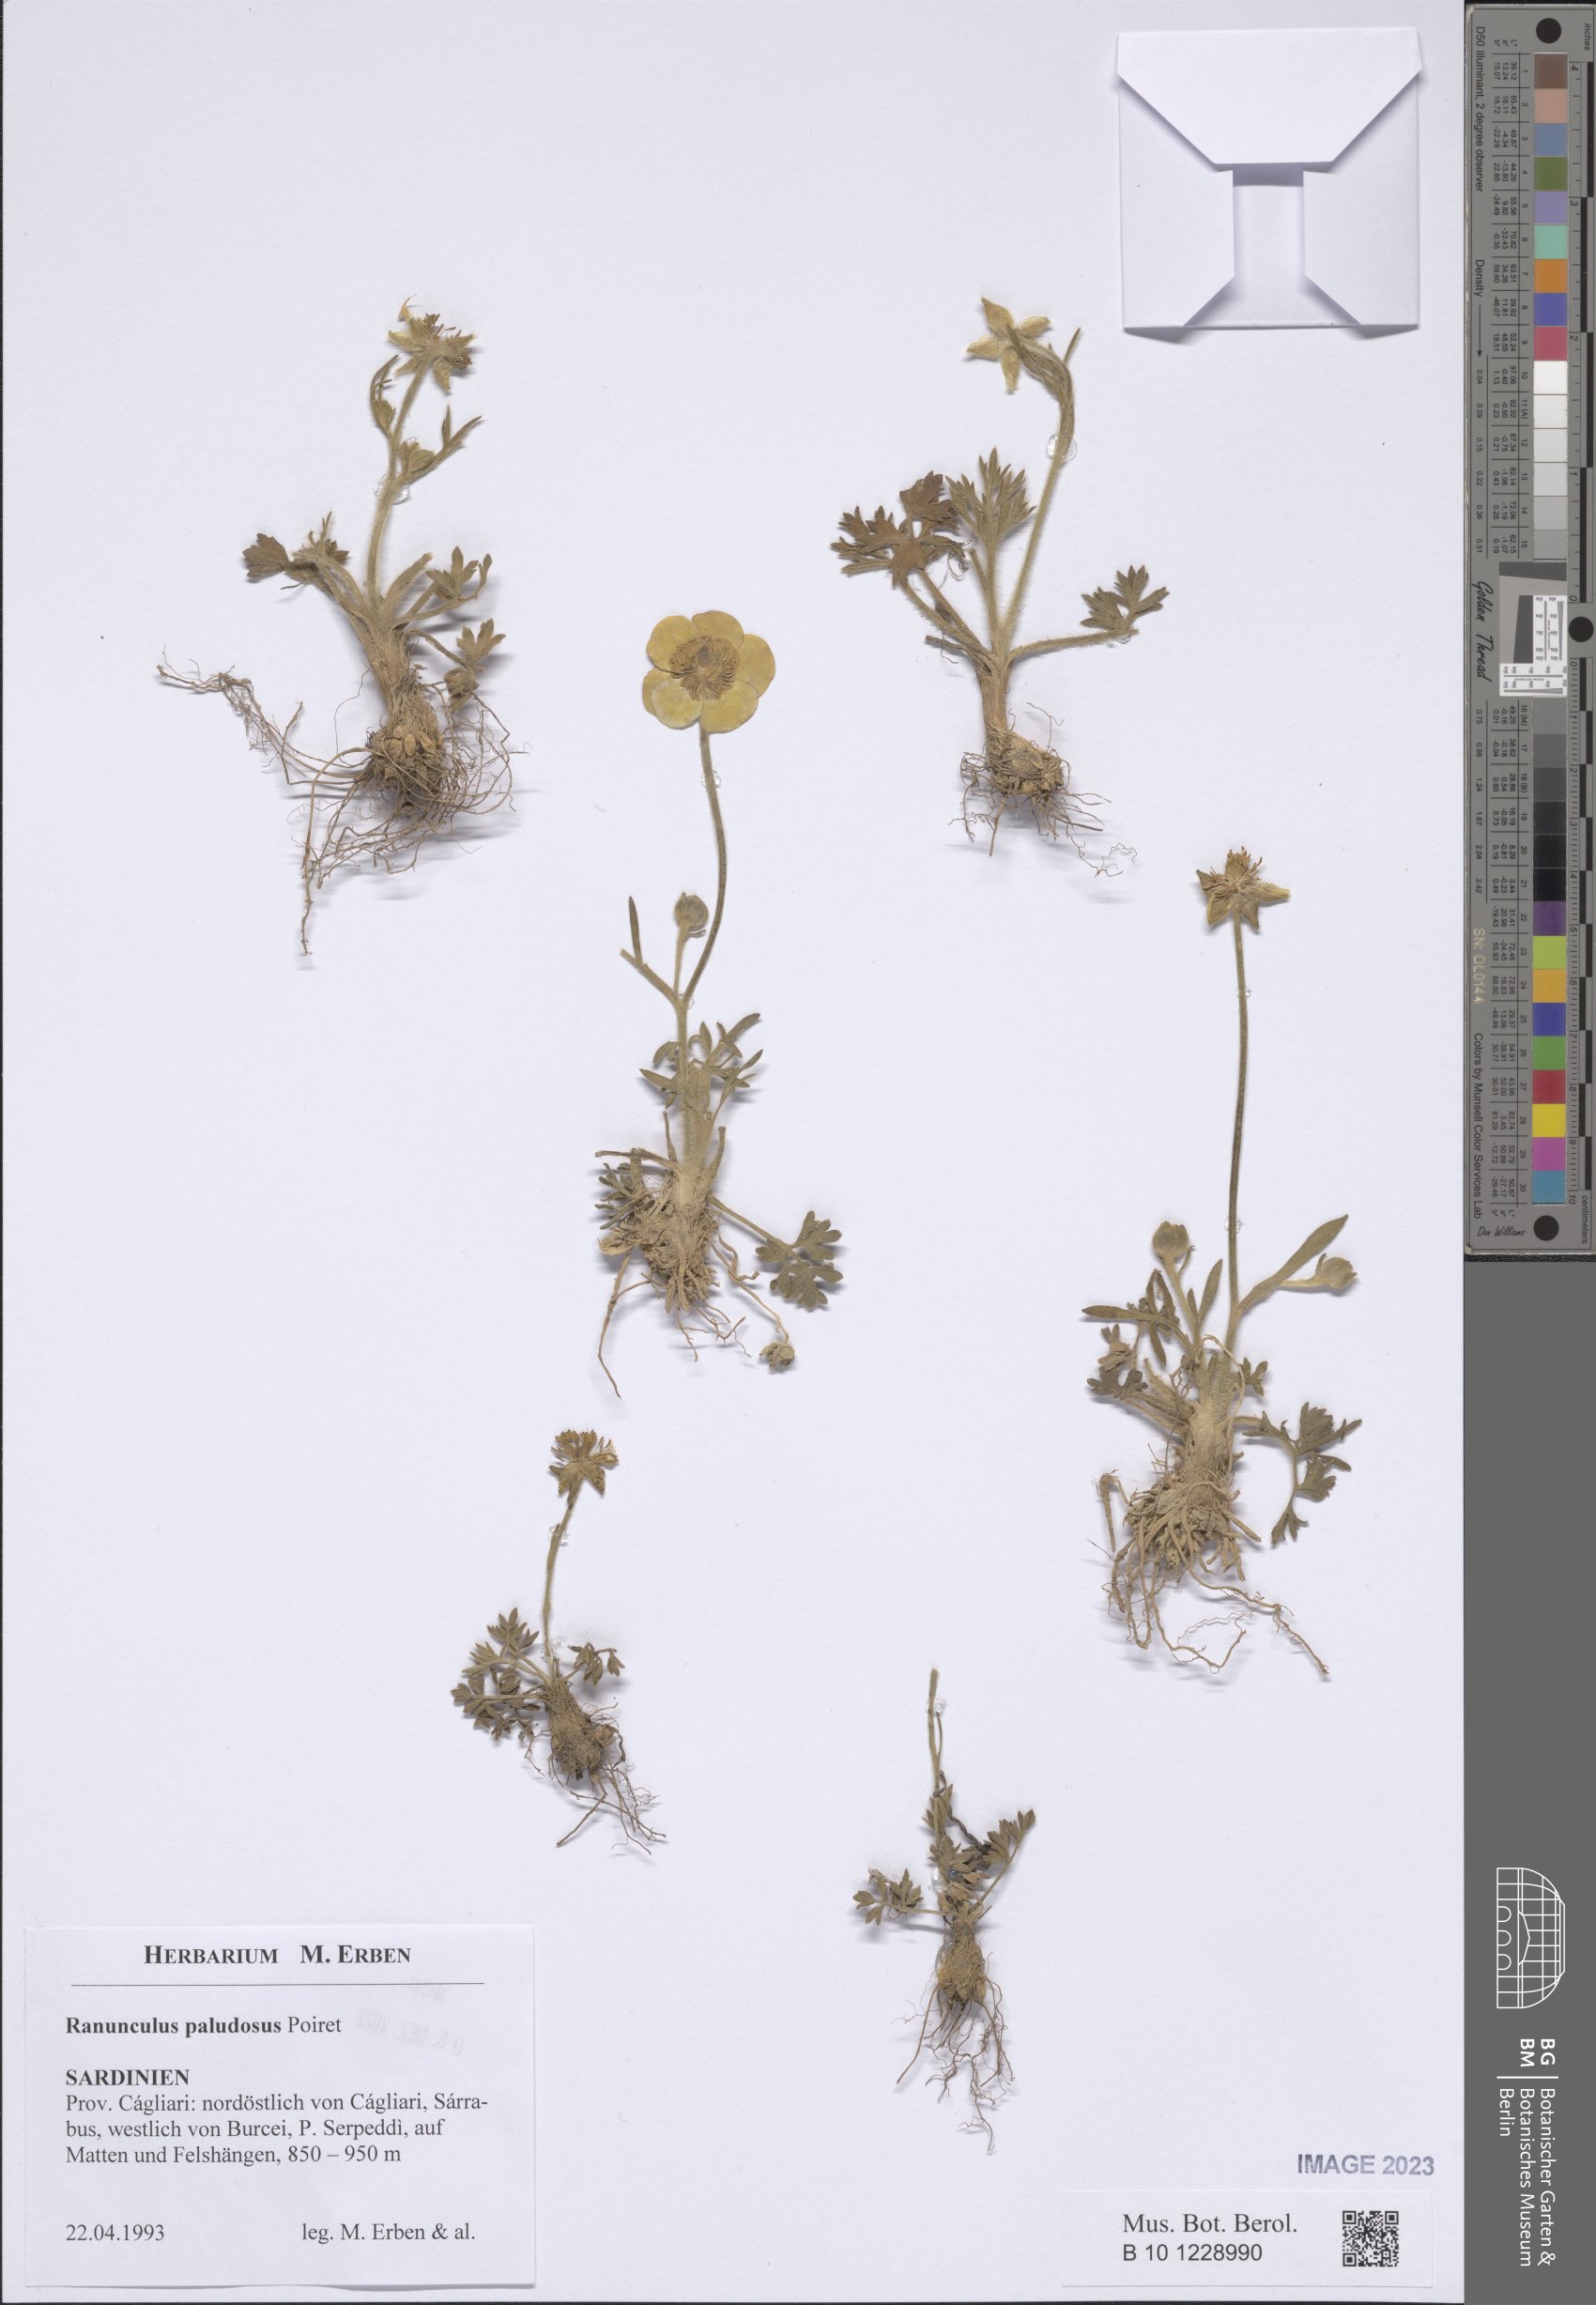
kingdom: Plantae
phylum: Tracheophyta
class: Magnoliopsida
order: Ranunculales
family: Ranunculaceae
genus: Ranunculus
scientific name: Ranunculus paludosus
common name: Jersey buttercup
